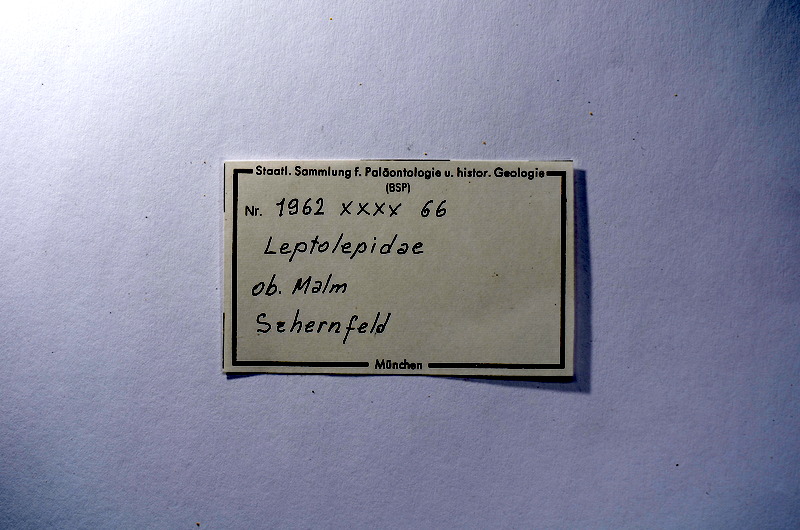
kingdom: Animalia
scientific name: Animalia
